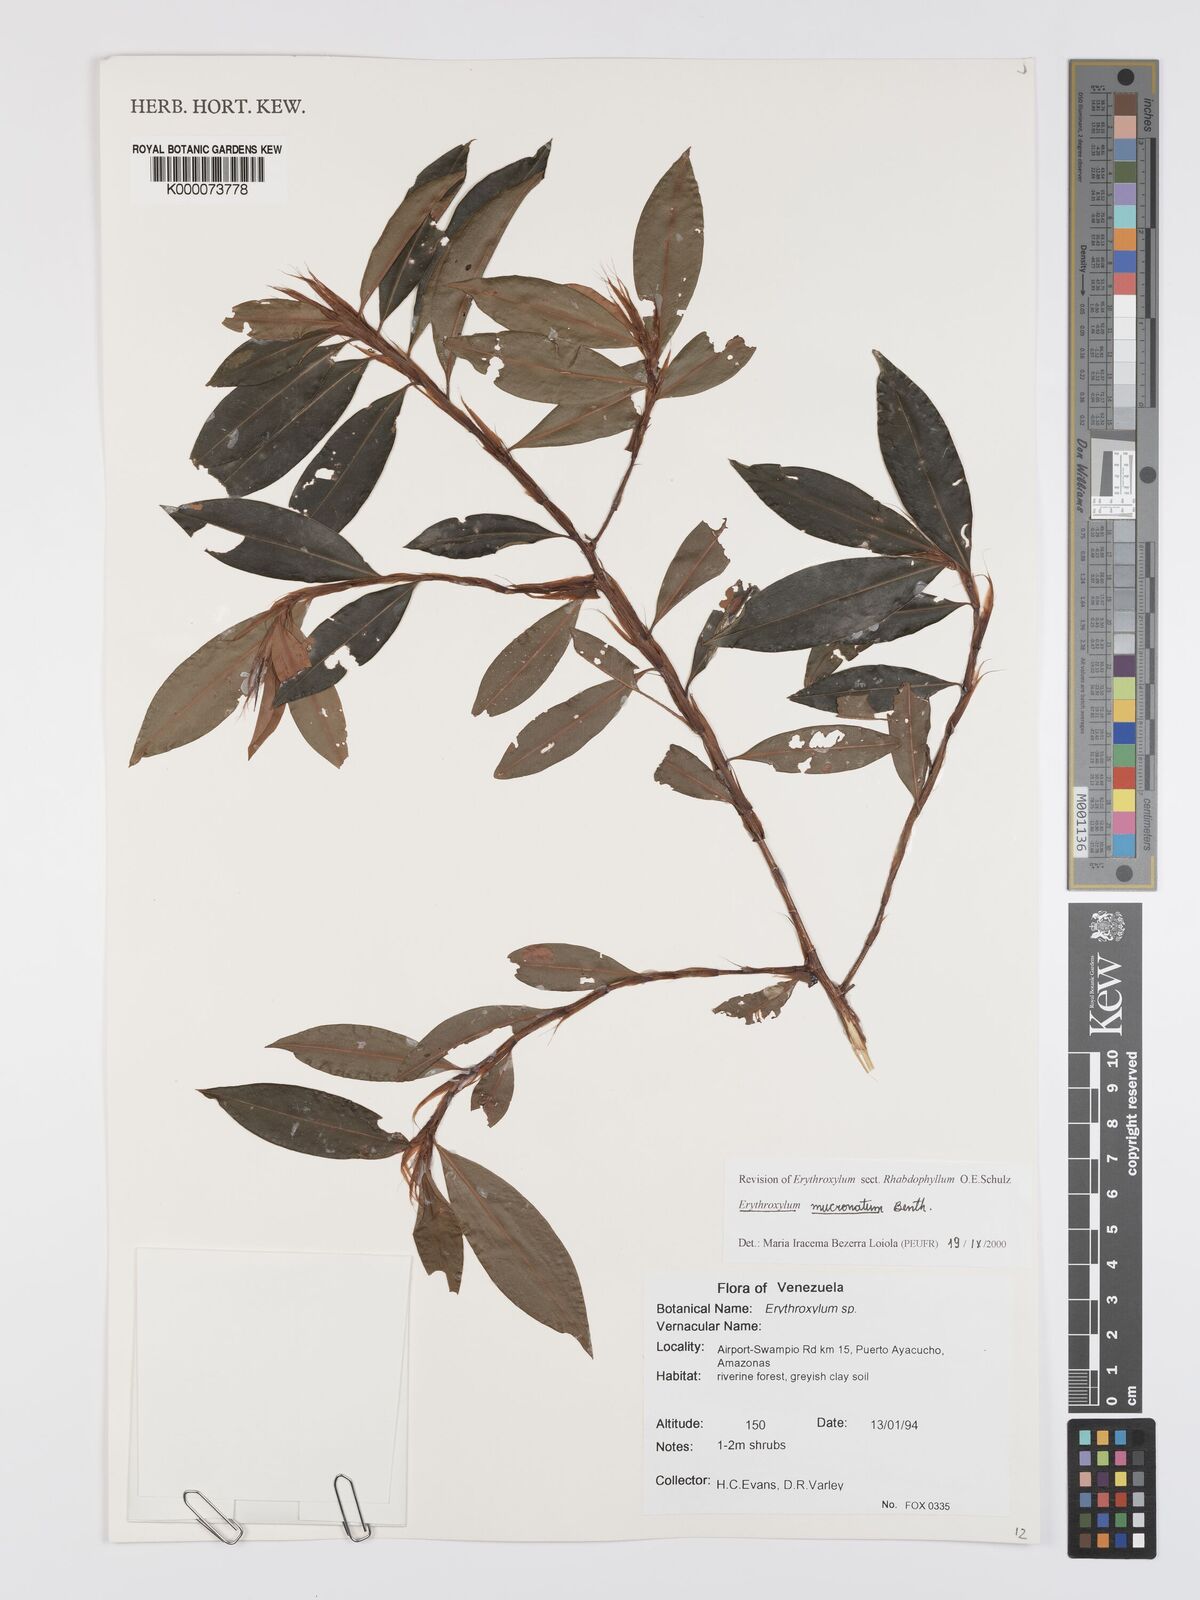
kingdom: Plantae
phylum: Tracheophyta
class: Magnoliopsida
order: Malpighiales
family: Erythroxylaceae
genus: Erythroxylum
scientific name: Erythroxylum mucronatum
